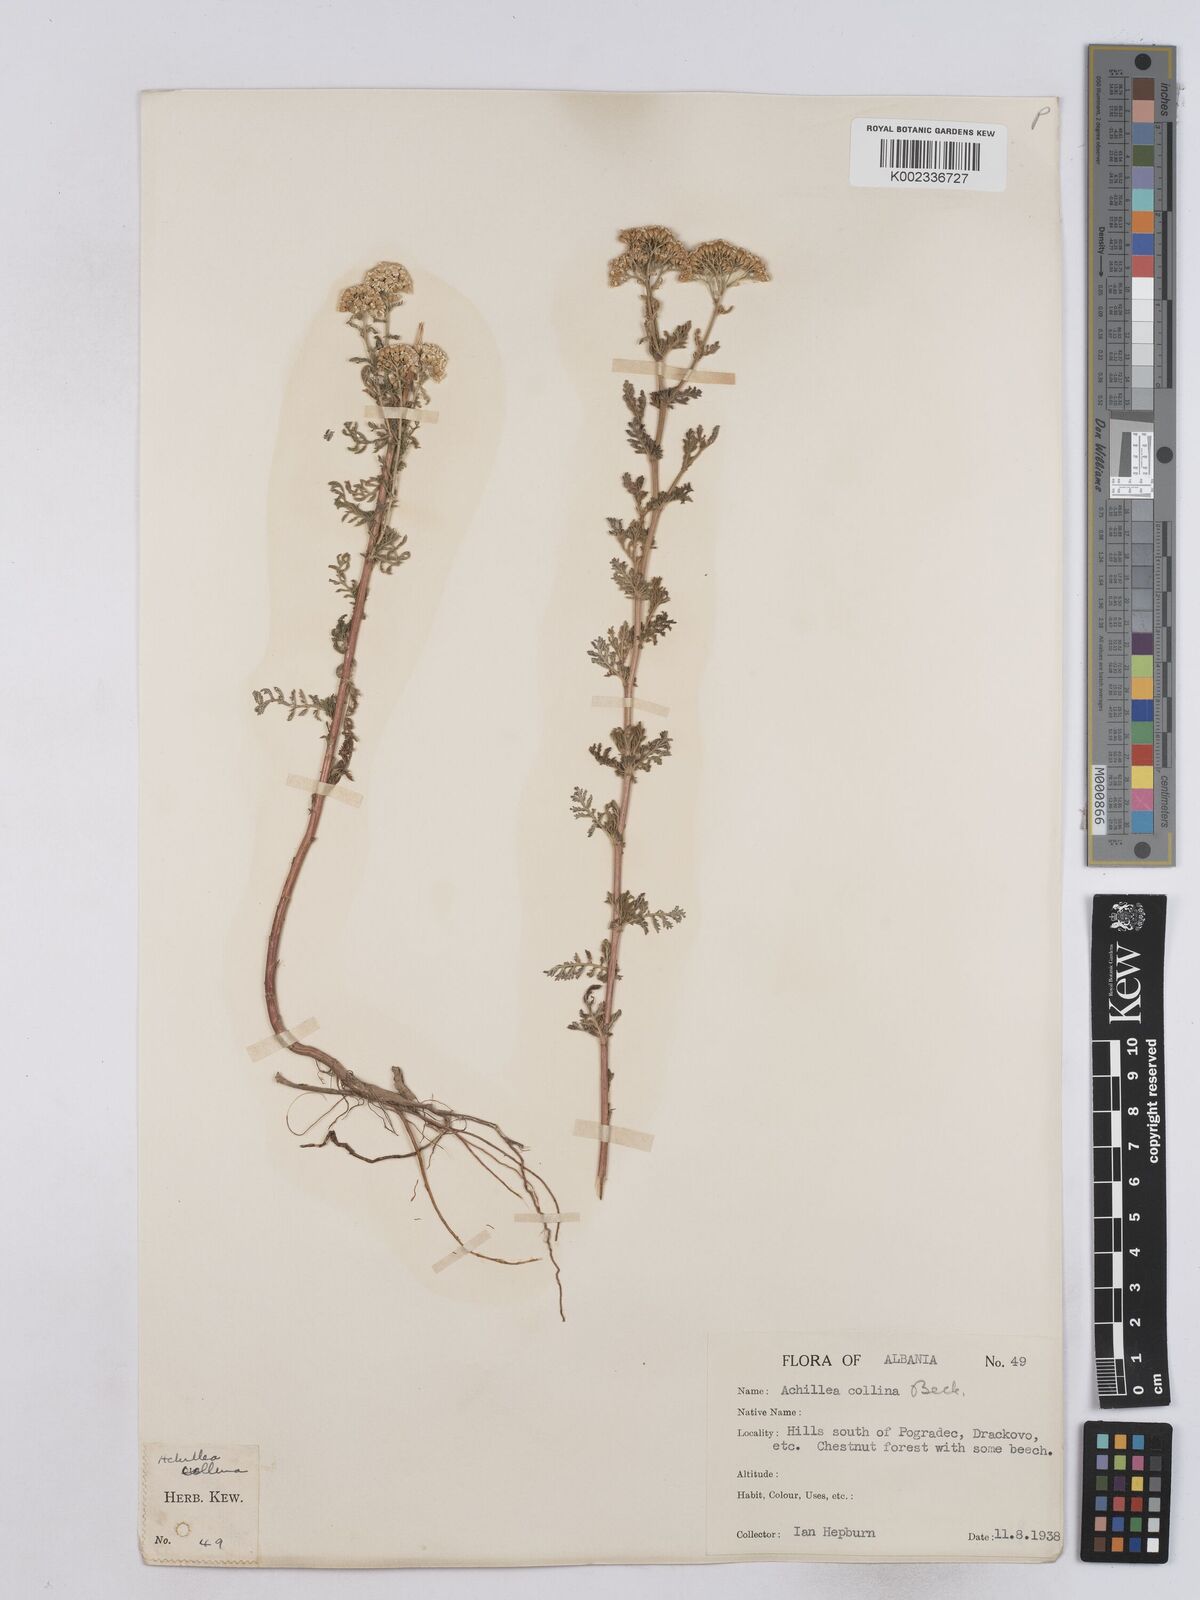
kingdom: Plantae
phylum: Tracheophyta
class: Magnoliopsida
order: Asterales
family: Asteraceae
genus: Achillea
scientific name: Achillea collina
